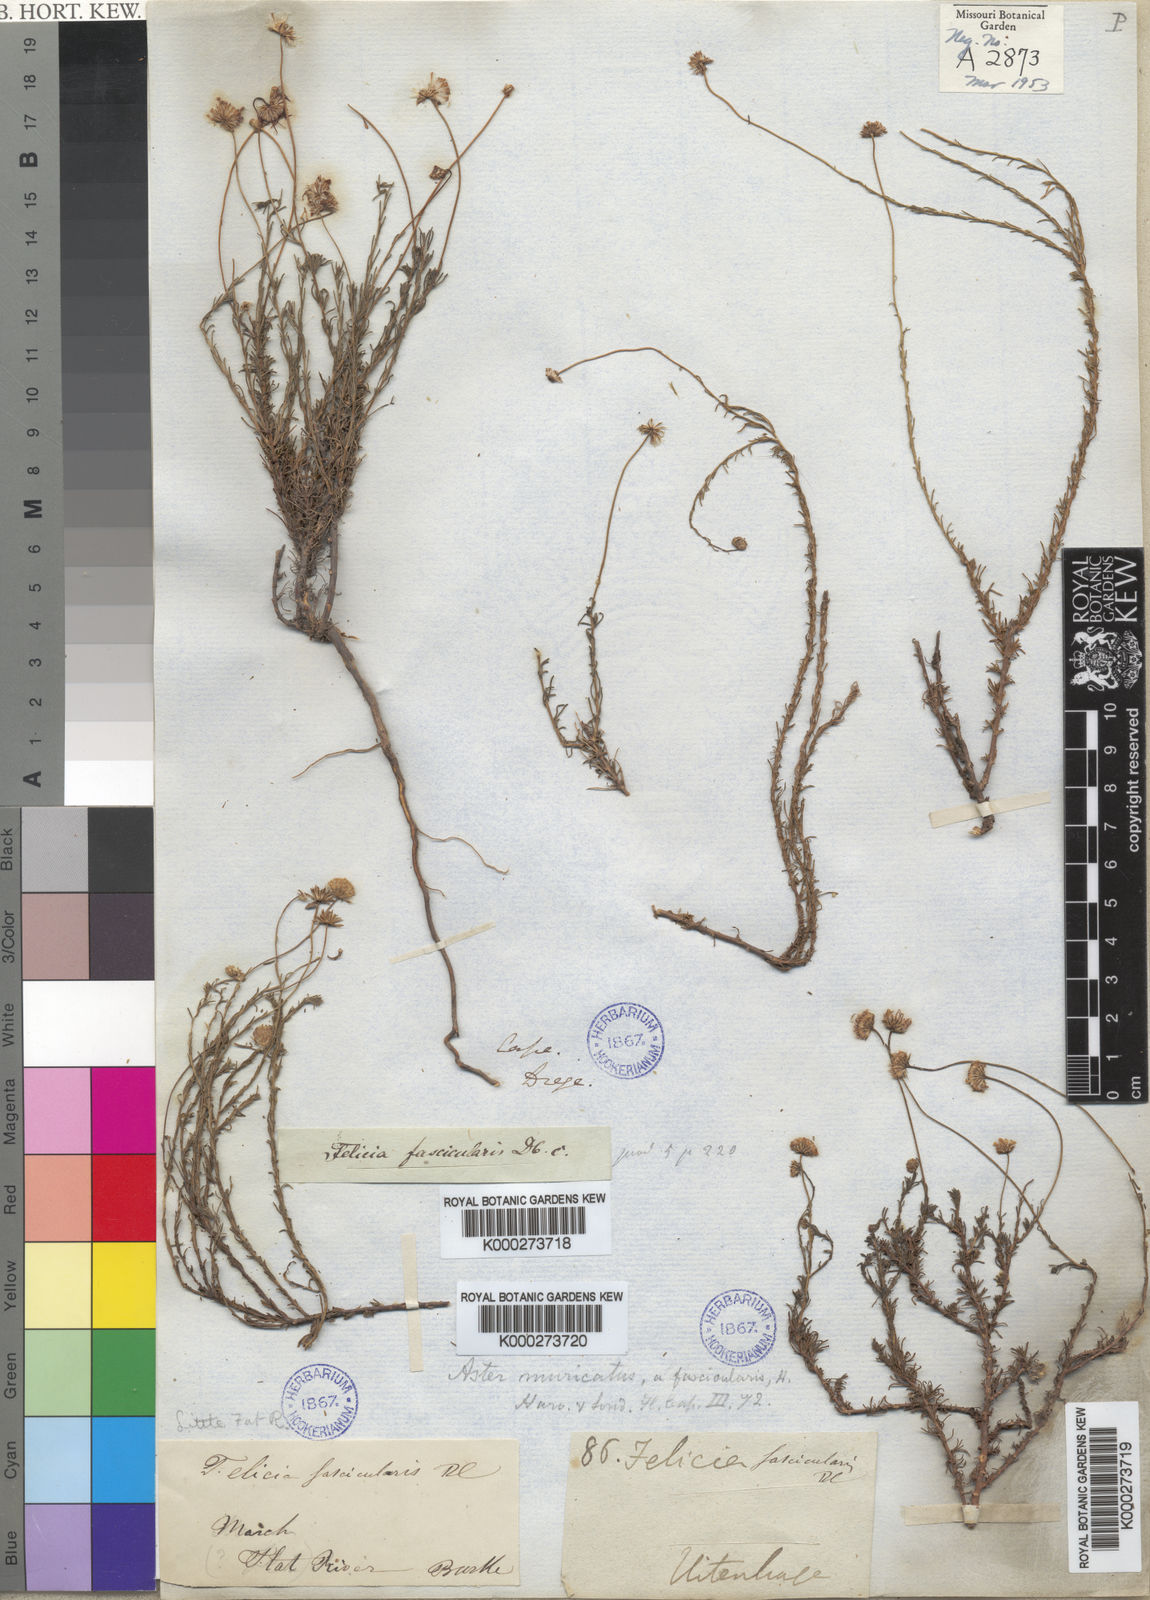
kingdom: Plantae
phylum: Tracheophyta
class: Magnoliopsida
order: Asterales
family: Asteraceae
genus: Felicia
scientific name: Felicia muricata
